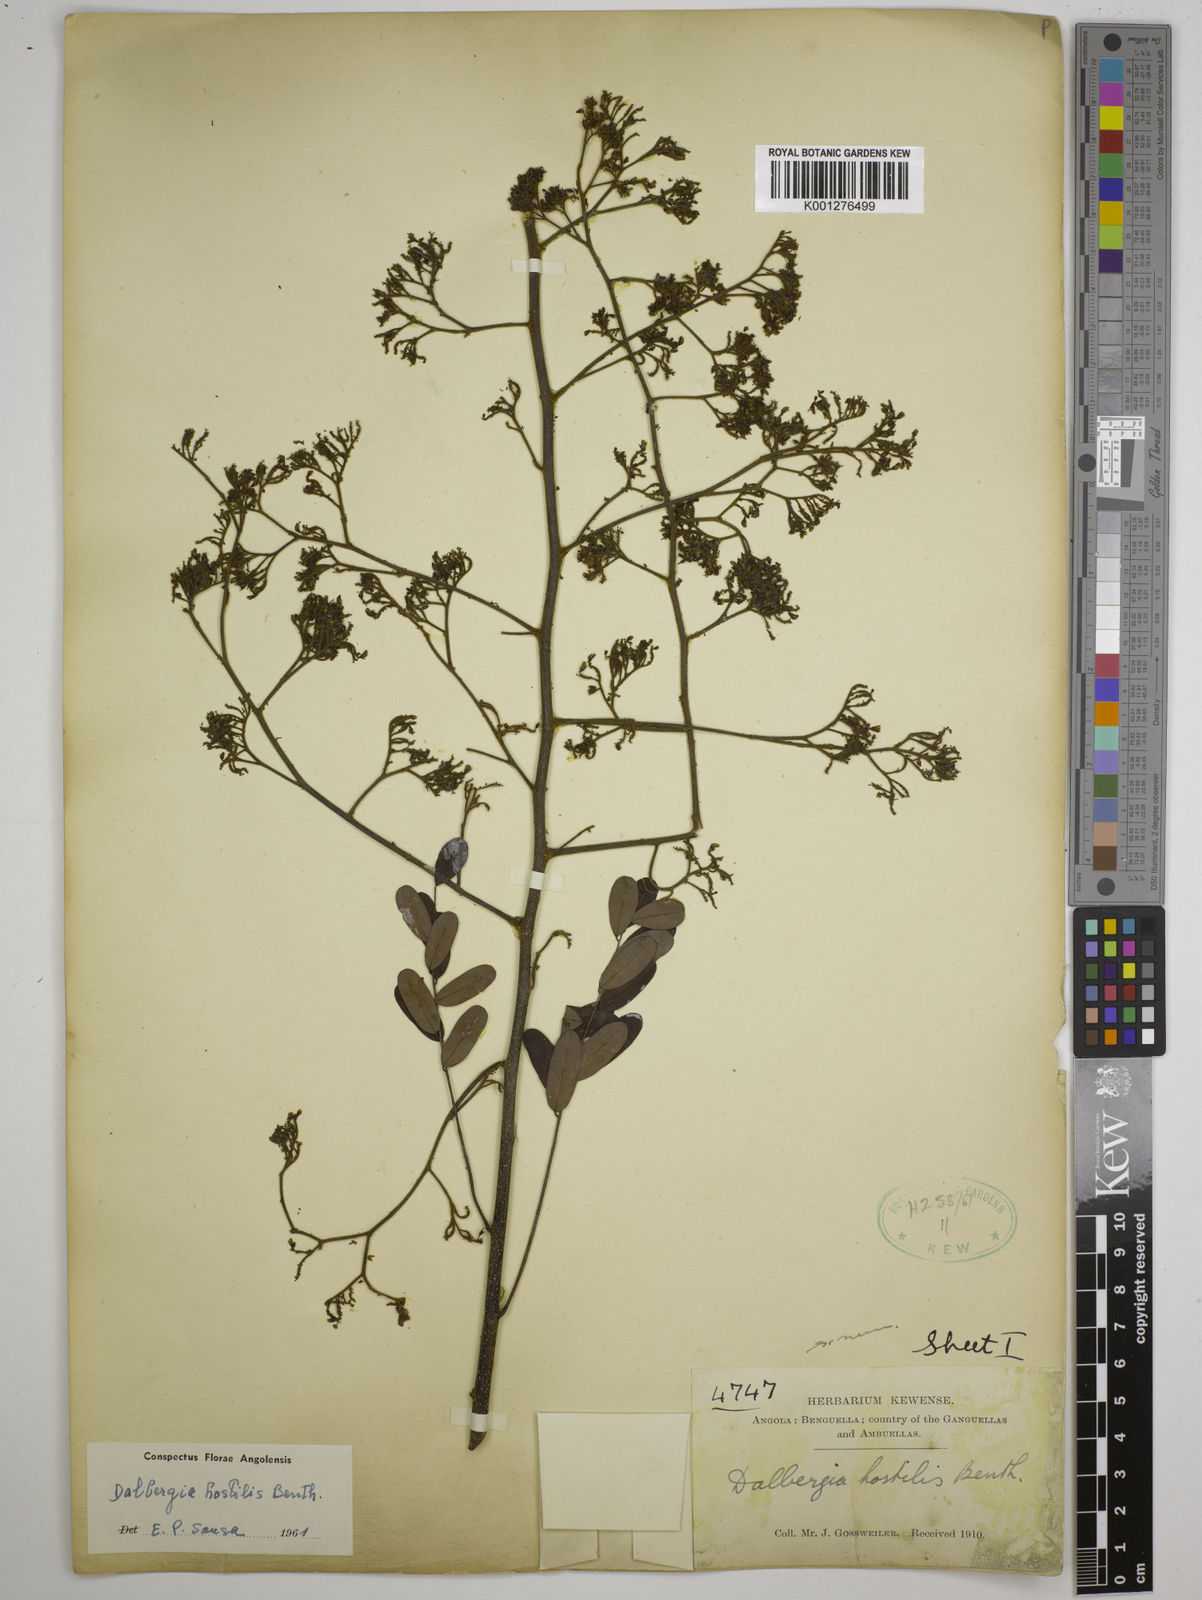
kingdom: Plantae
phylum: Tracheophyta
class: Magnoliopsida
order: Fabales
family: Fabaceae
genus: Dalbergia
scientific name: Dalbergia hostilis
